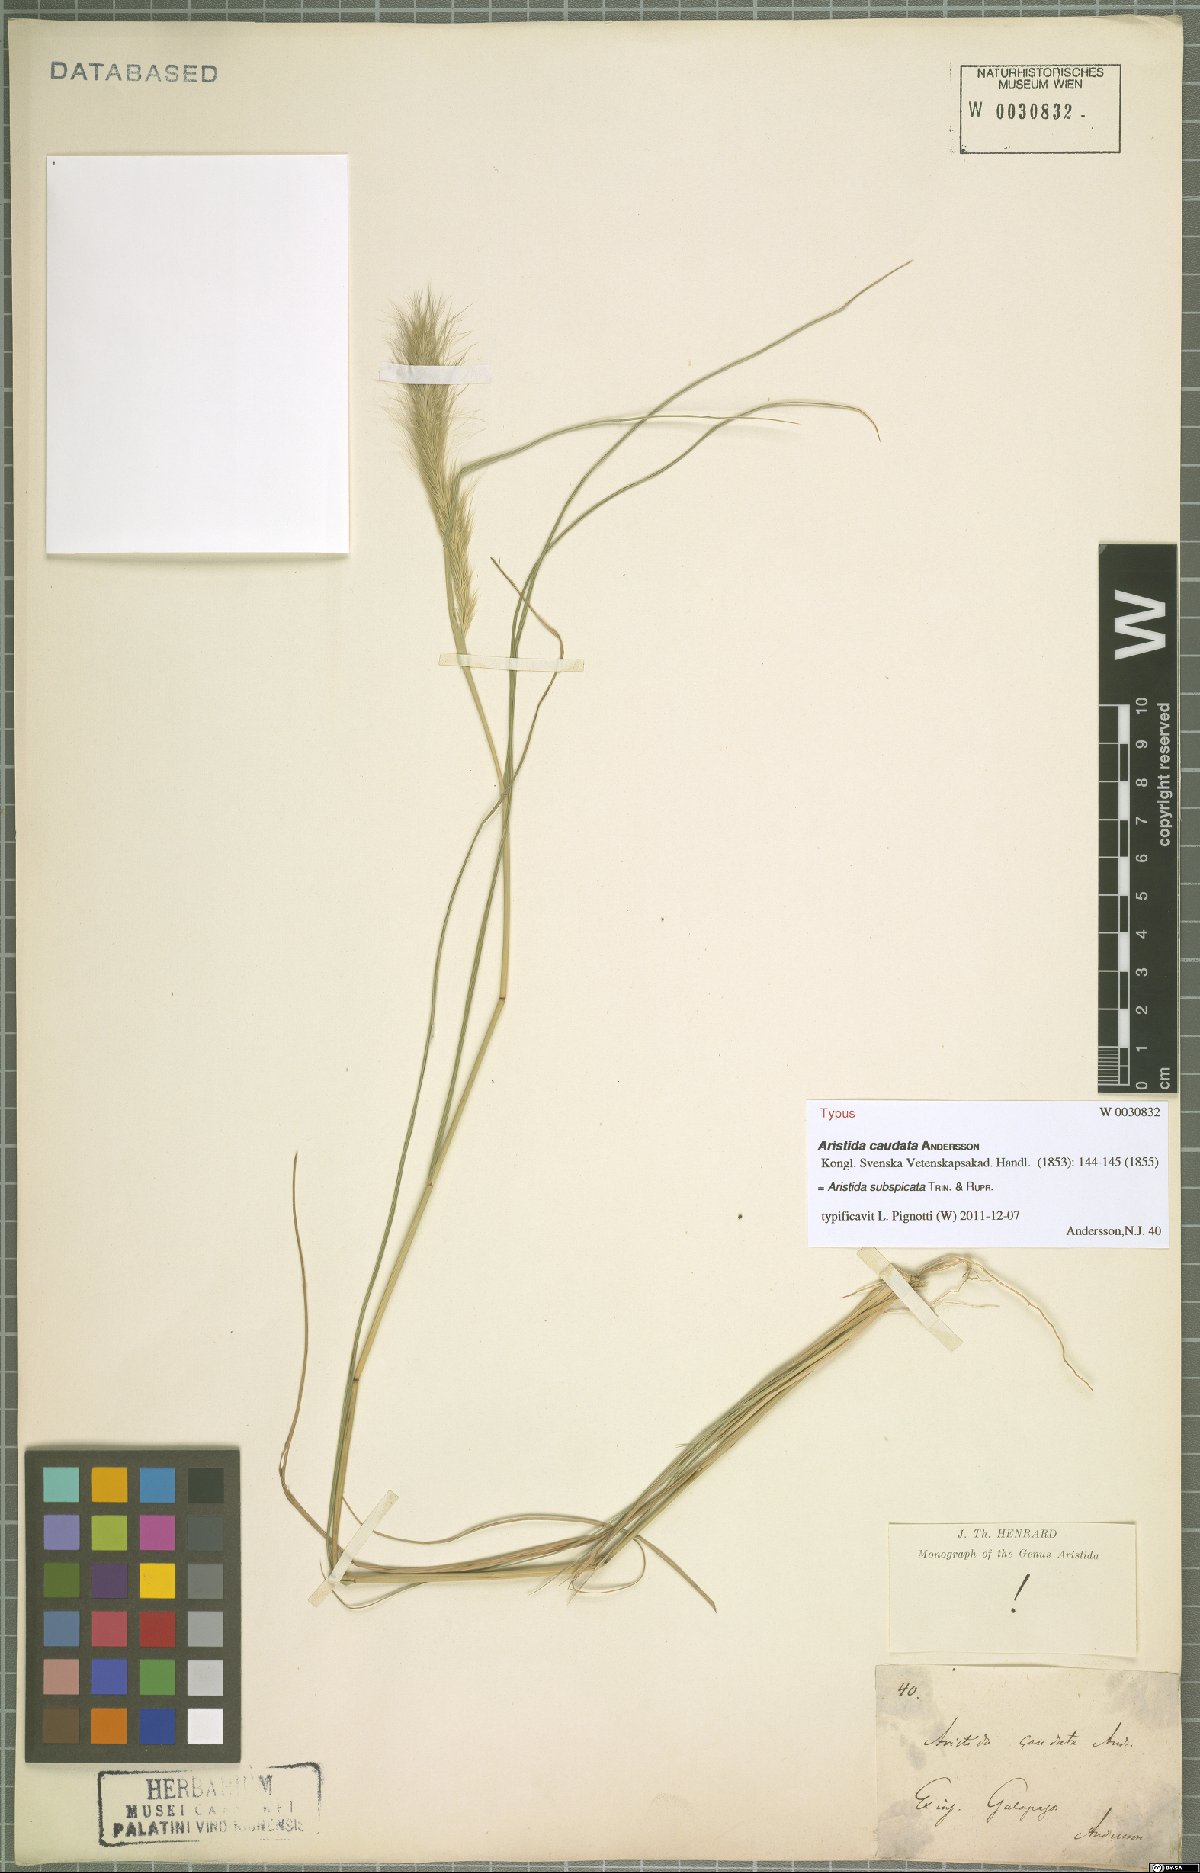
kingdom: Plantae
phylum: Tracheophyta
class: Liliopsida
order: Poales
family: Poaceae
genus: Aristida
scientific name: Aristida subspicata
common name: Galapagos three-awn grass
